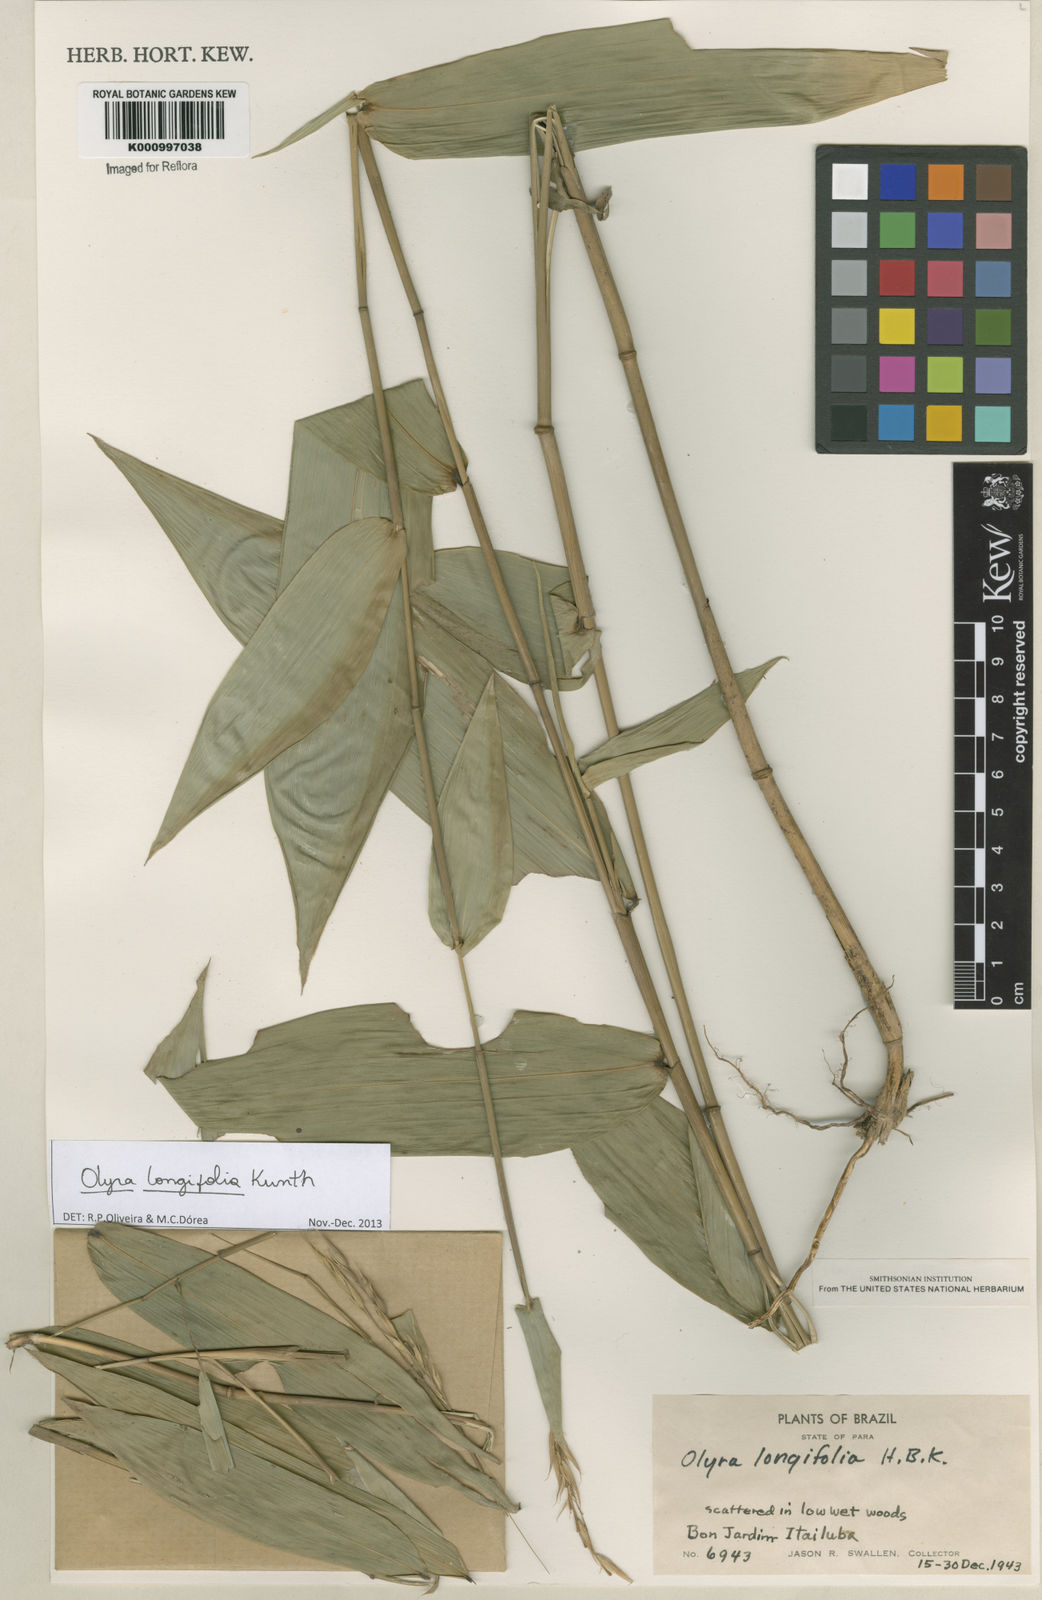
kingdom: Plantae
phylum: Tracheophyta
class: Liliopsida
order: Poales
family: Poaceae
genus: Olyra
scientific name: Olyra longifolia
